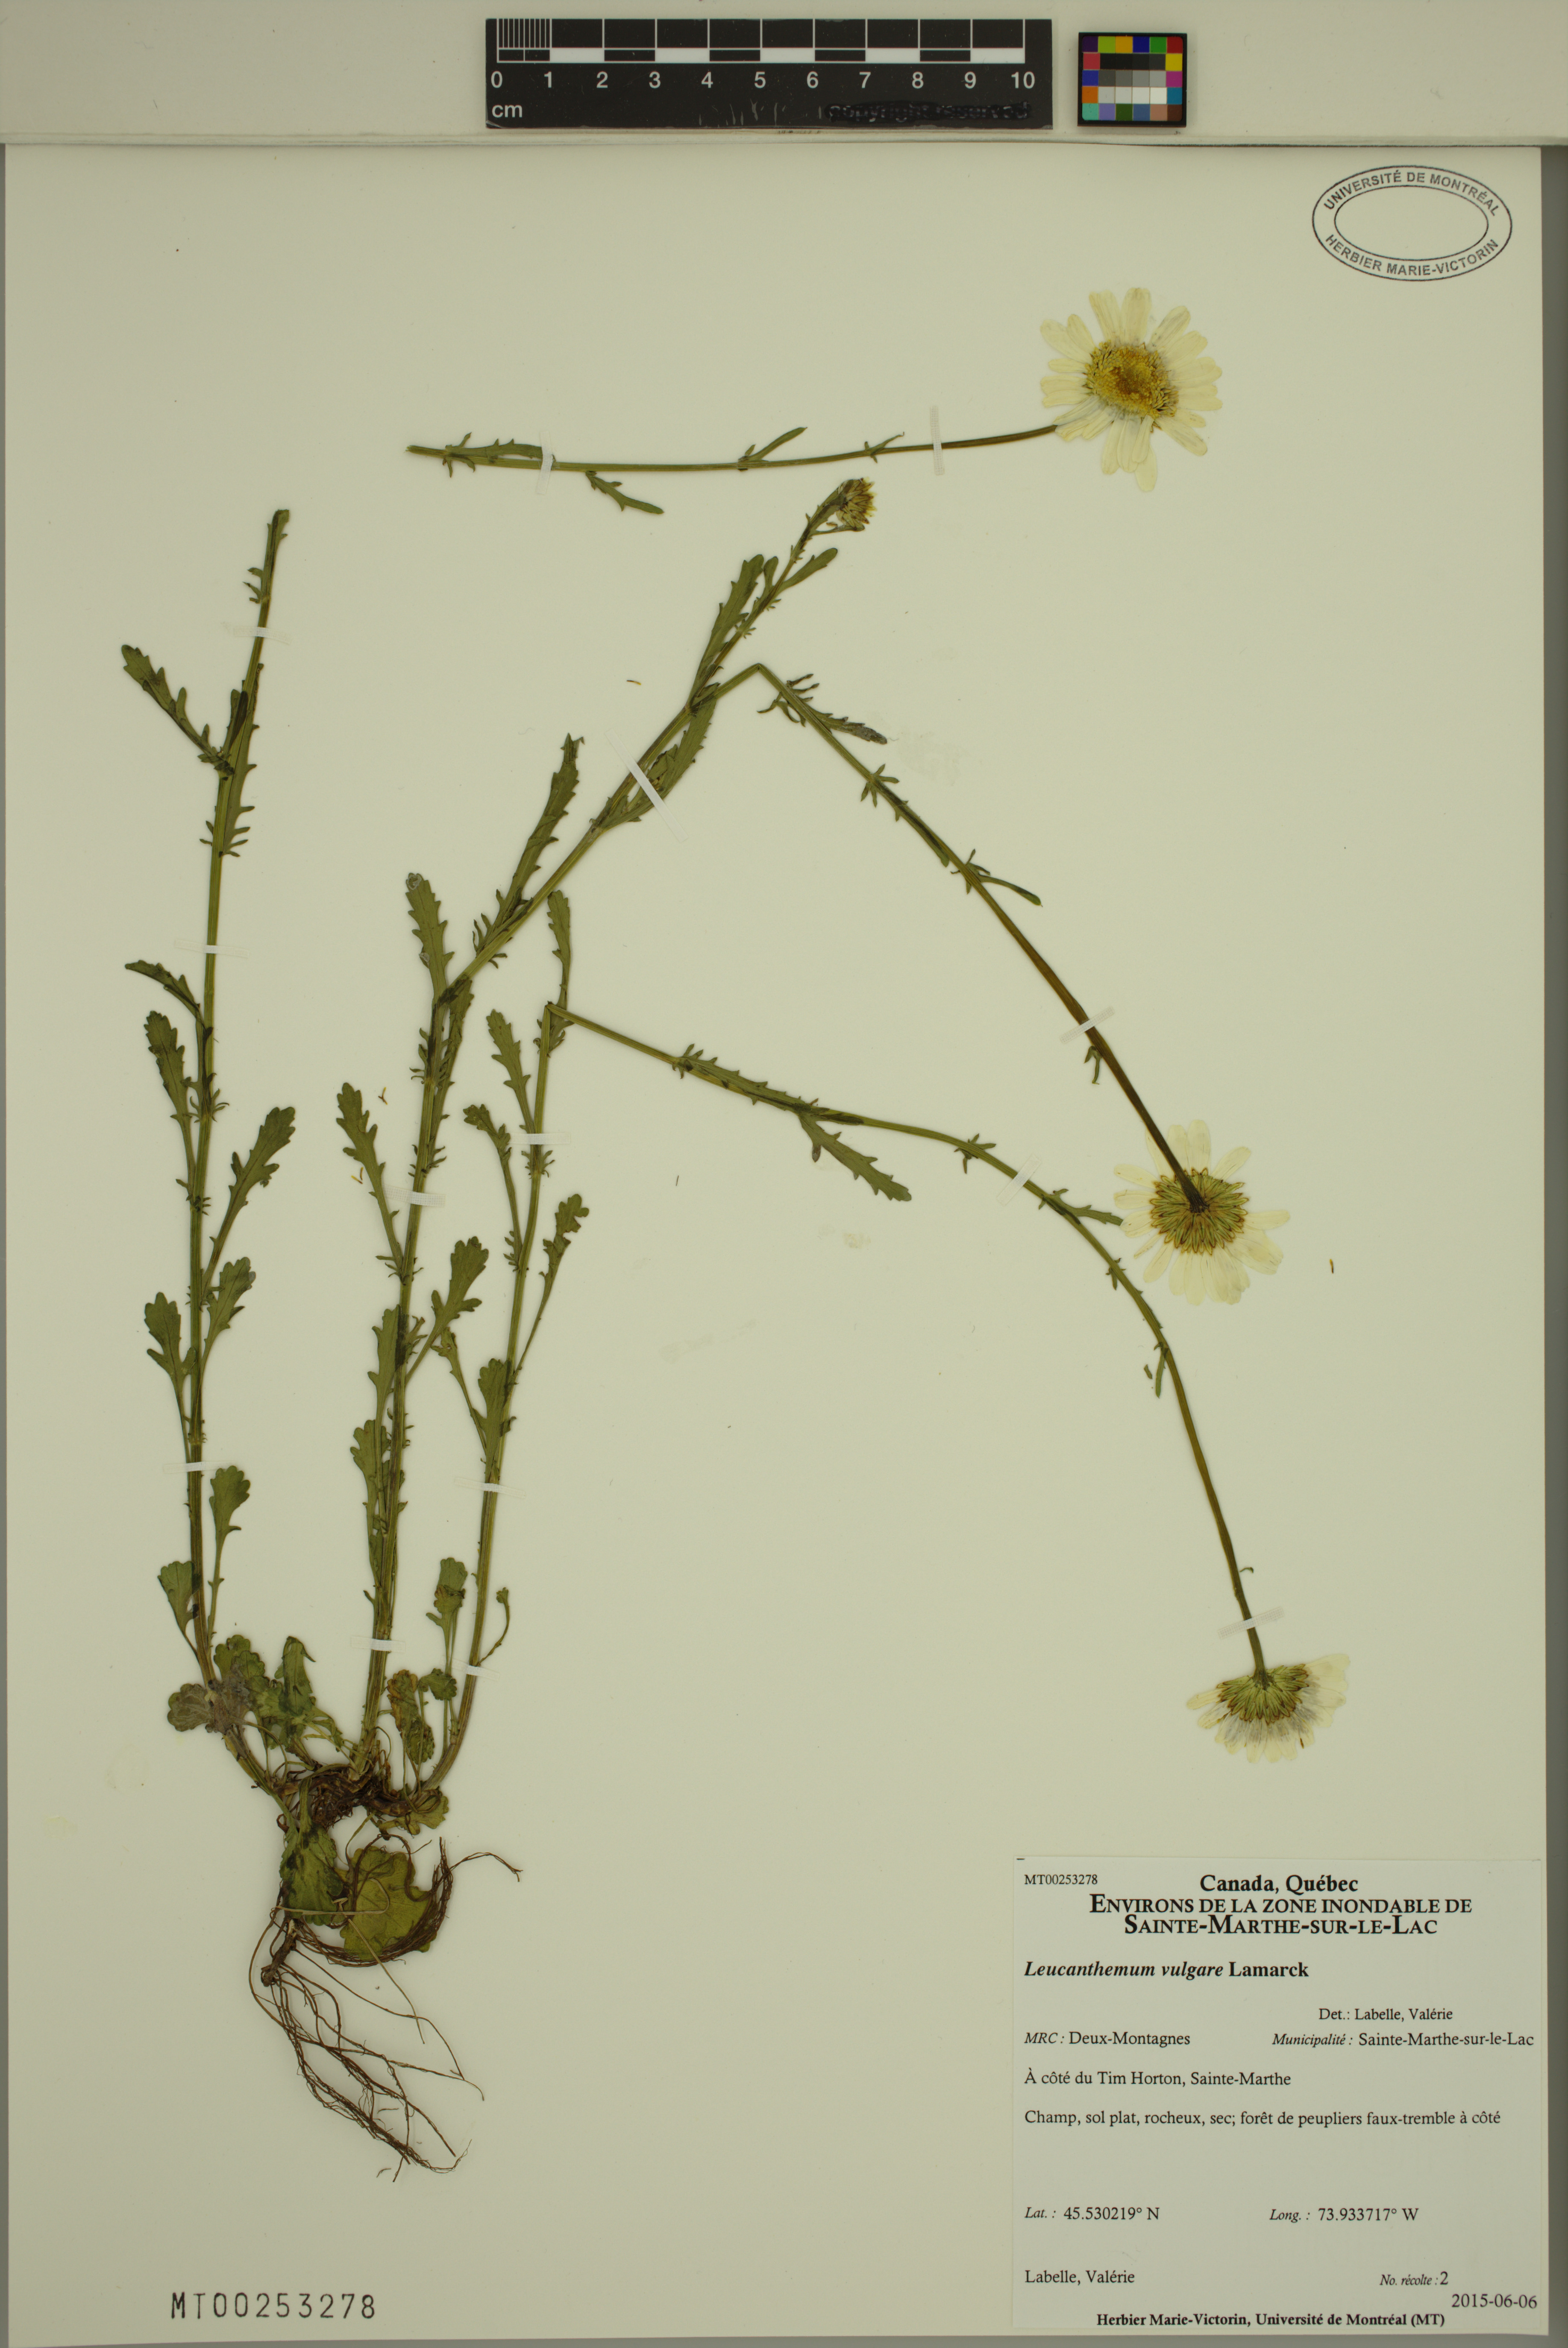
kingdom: Plantae
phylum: Tracheophyta
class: Magnoliopsida
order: Asterales
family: Asteraceae
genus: Leucanthemum
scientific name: Leucanthemum vulgare
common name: Oxeye daisy
